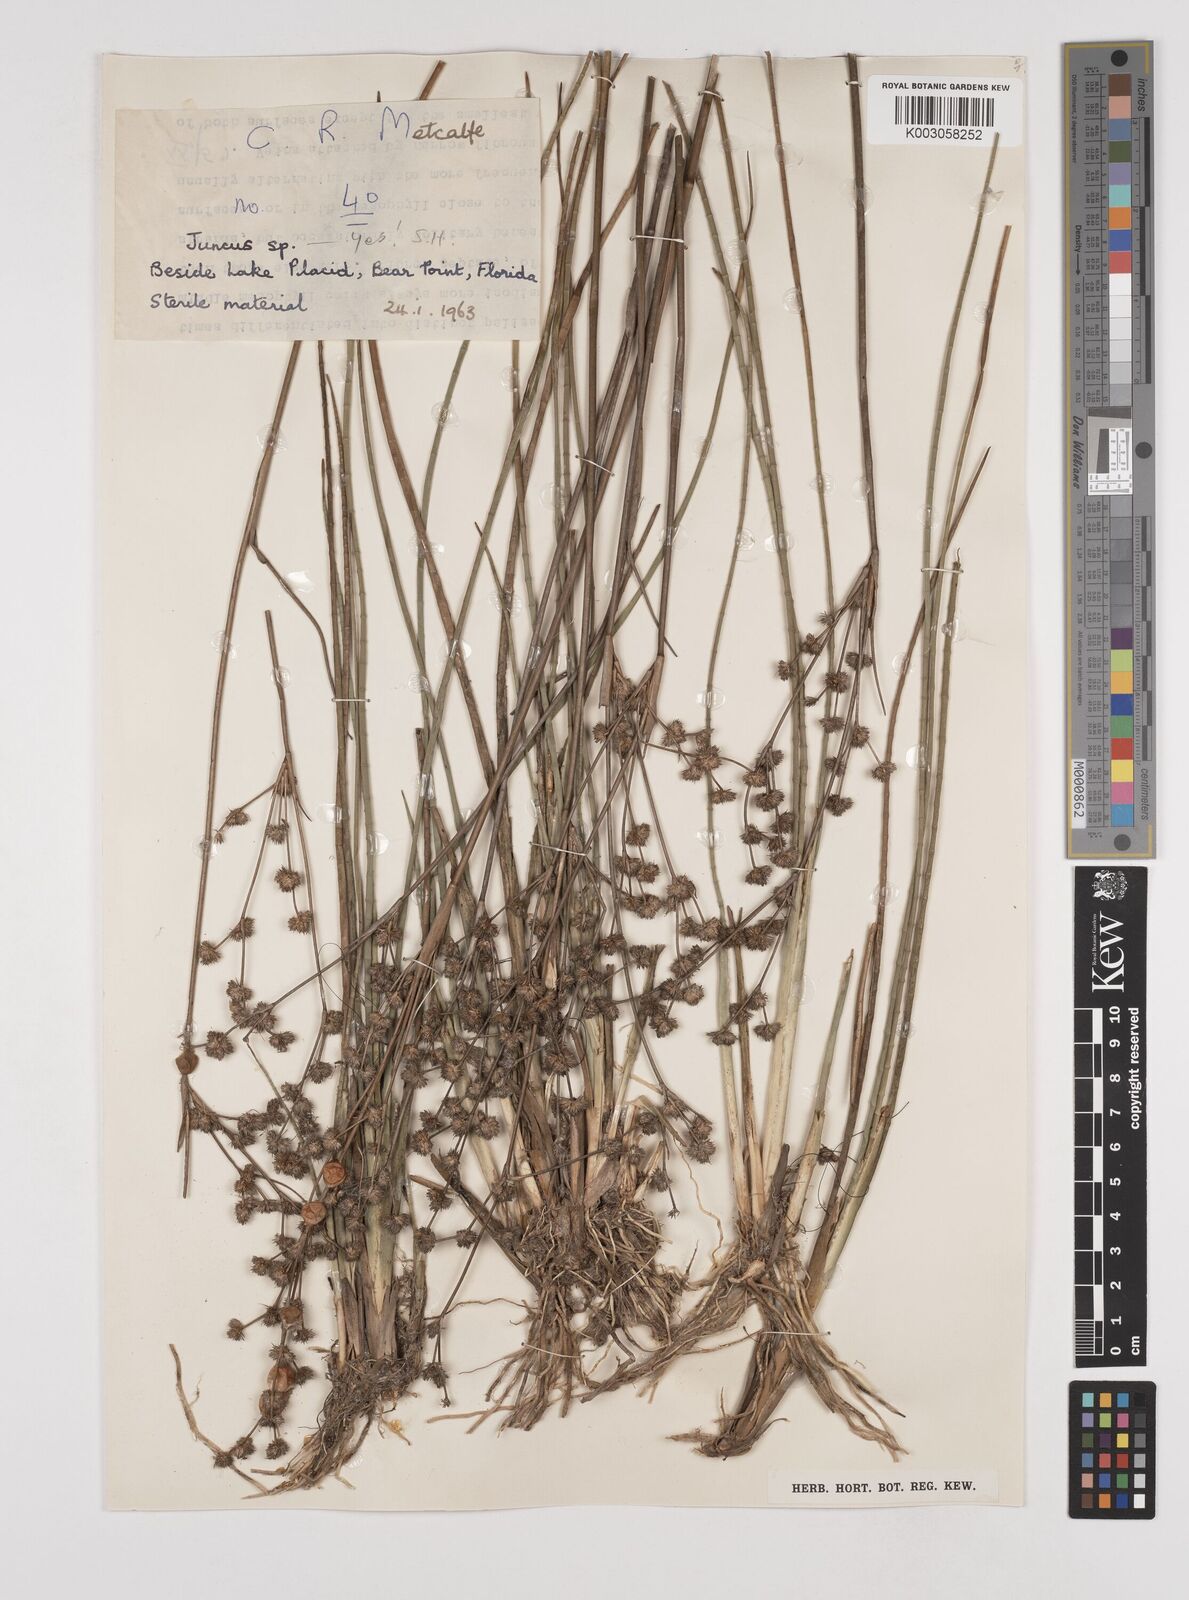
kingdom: Plantae
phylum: Tracheophyta
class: Liliopsida
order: Poales
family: Juncaceae
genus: Juncus
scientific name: Juncus
